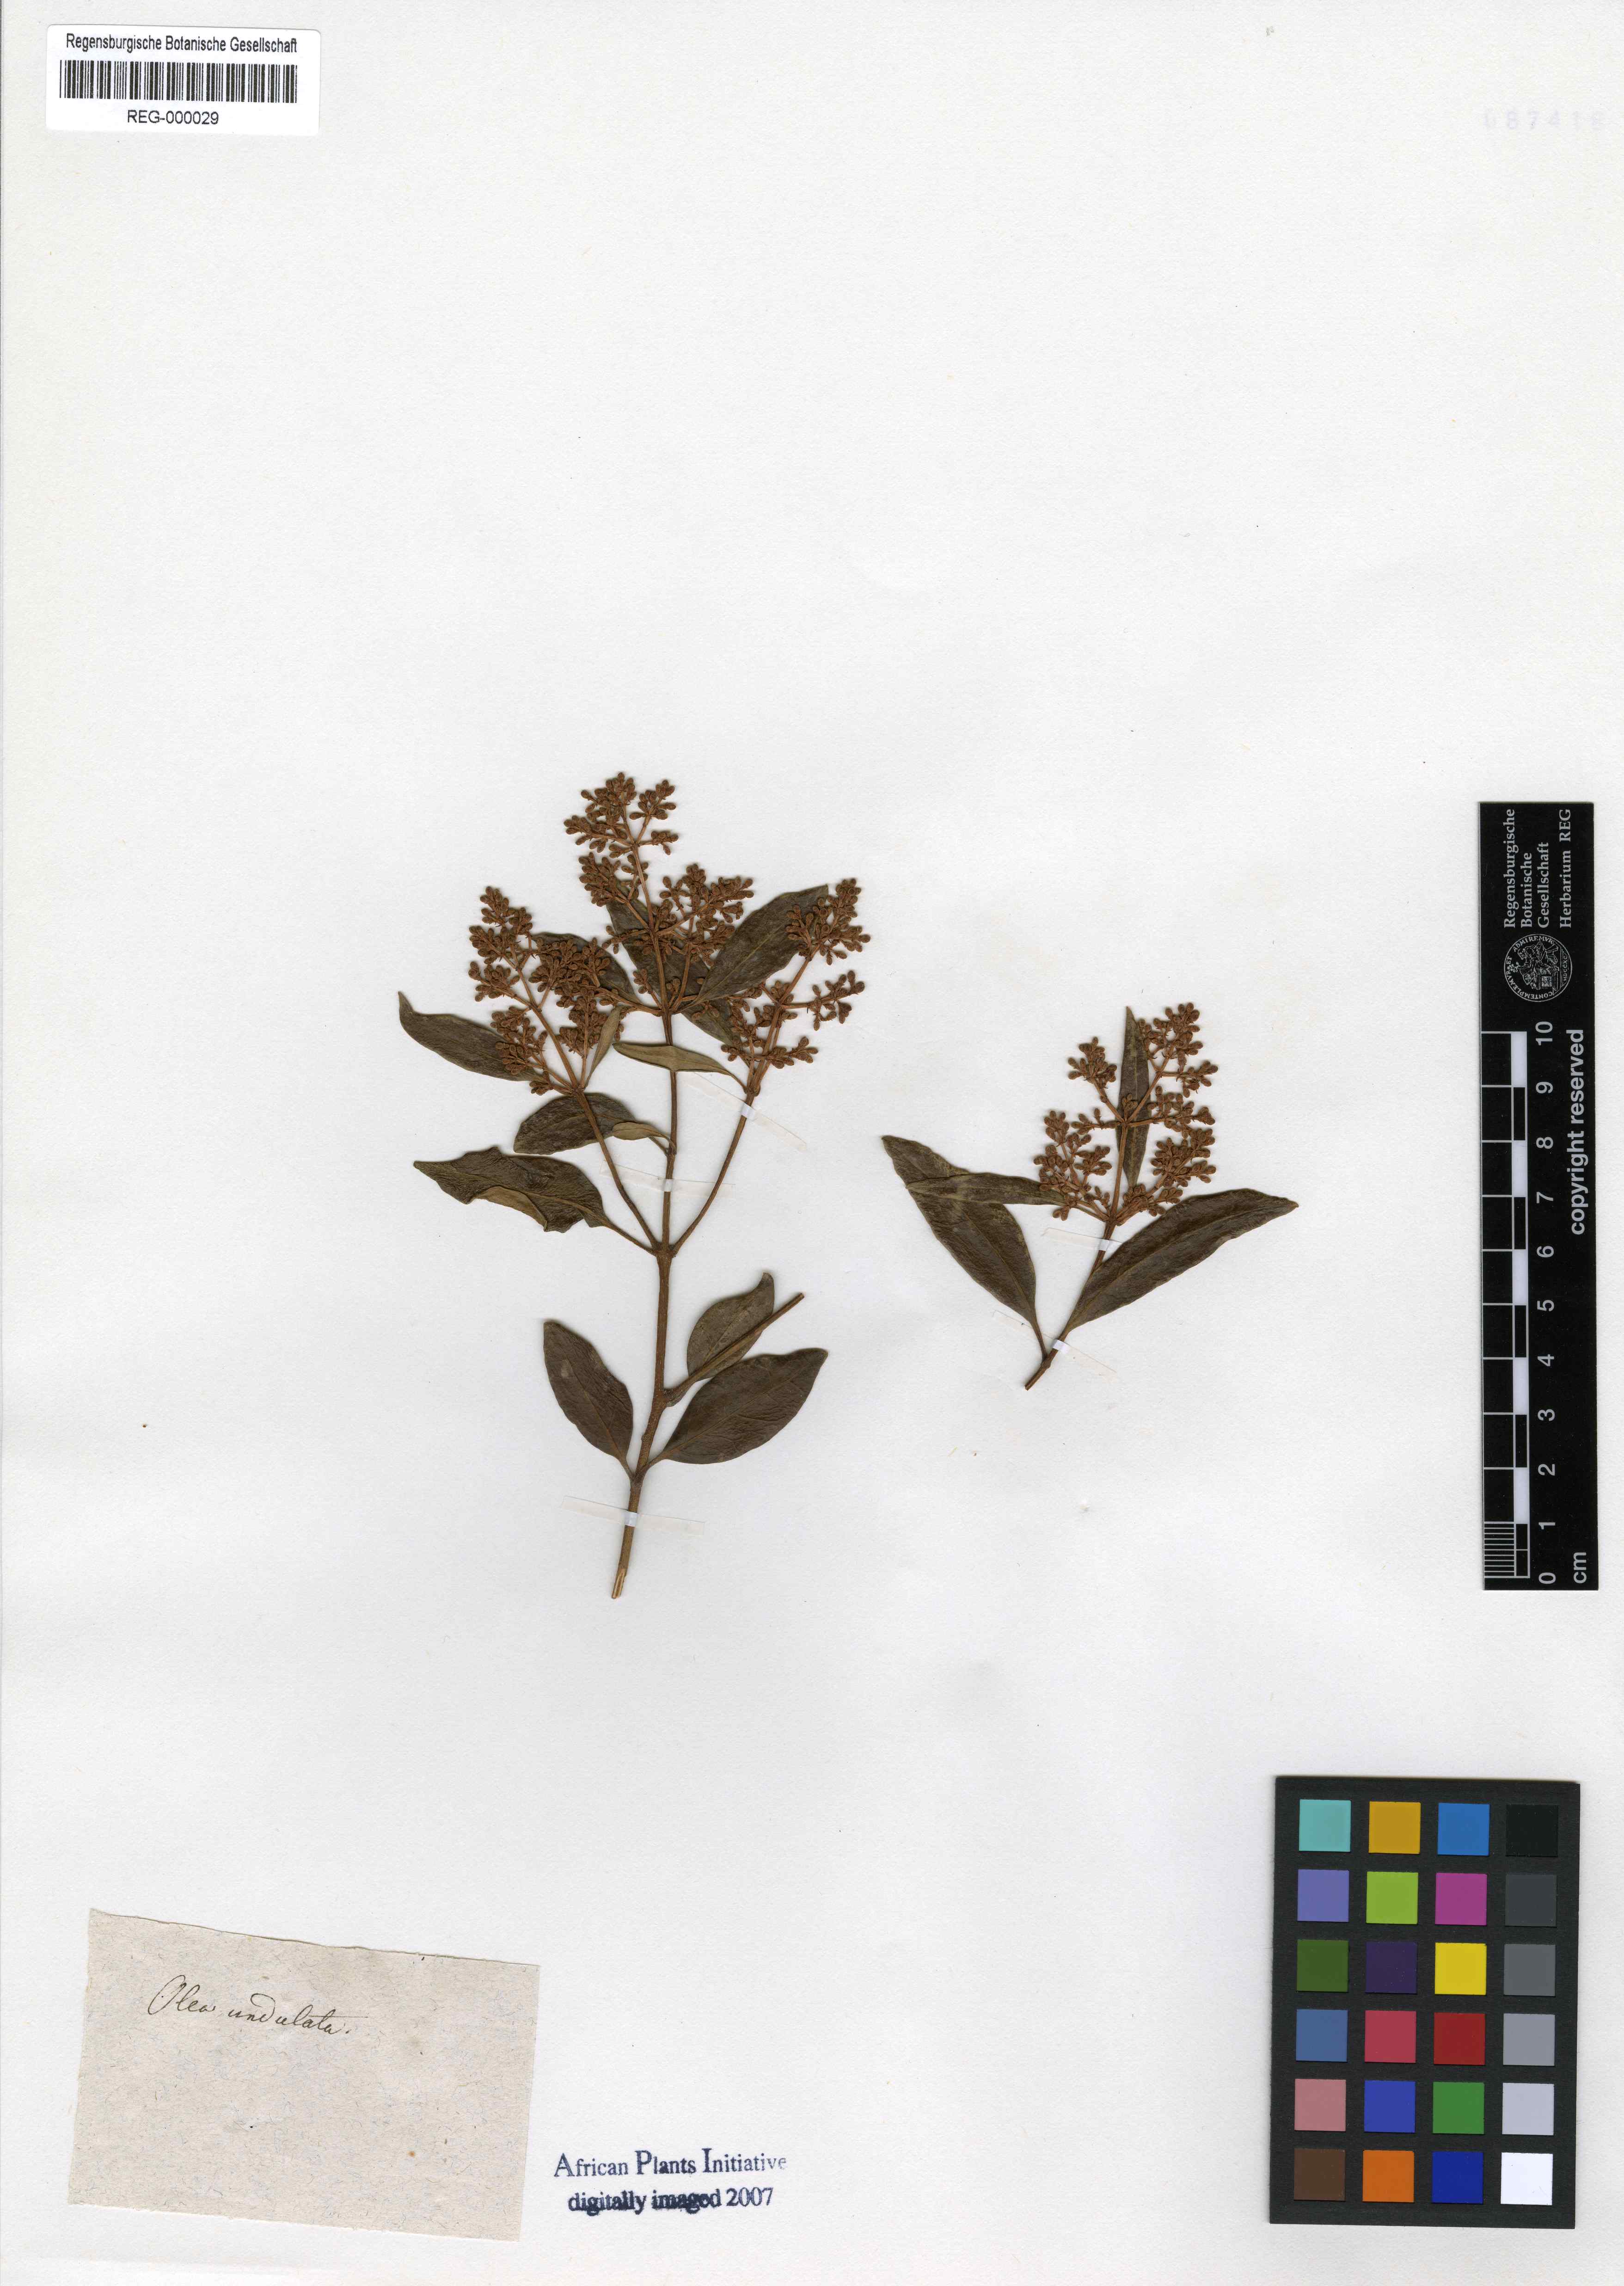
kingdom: Plantae
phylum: Tracheophyta
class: Magnoliopsida
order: Lamiales
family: Oleaceae
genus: Olea
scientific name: Olea capensis
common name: Black ironwood
